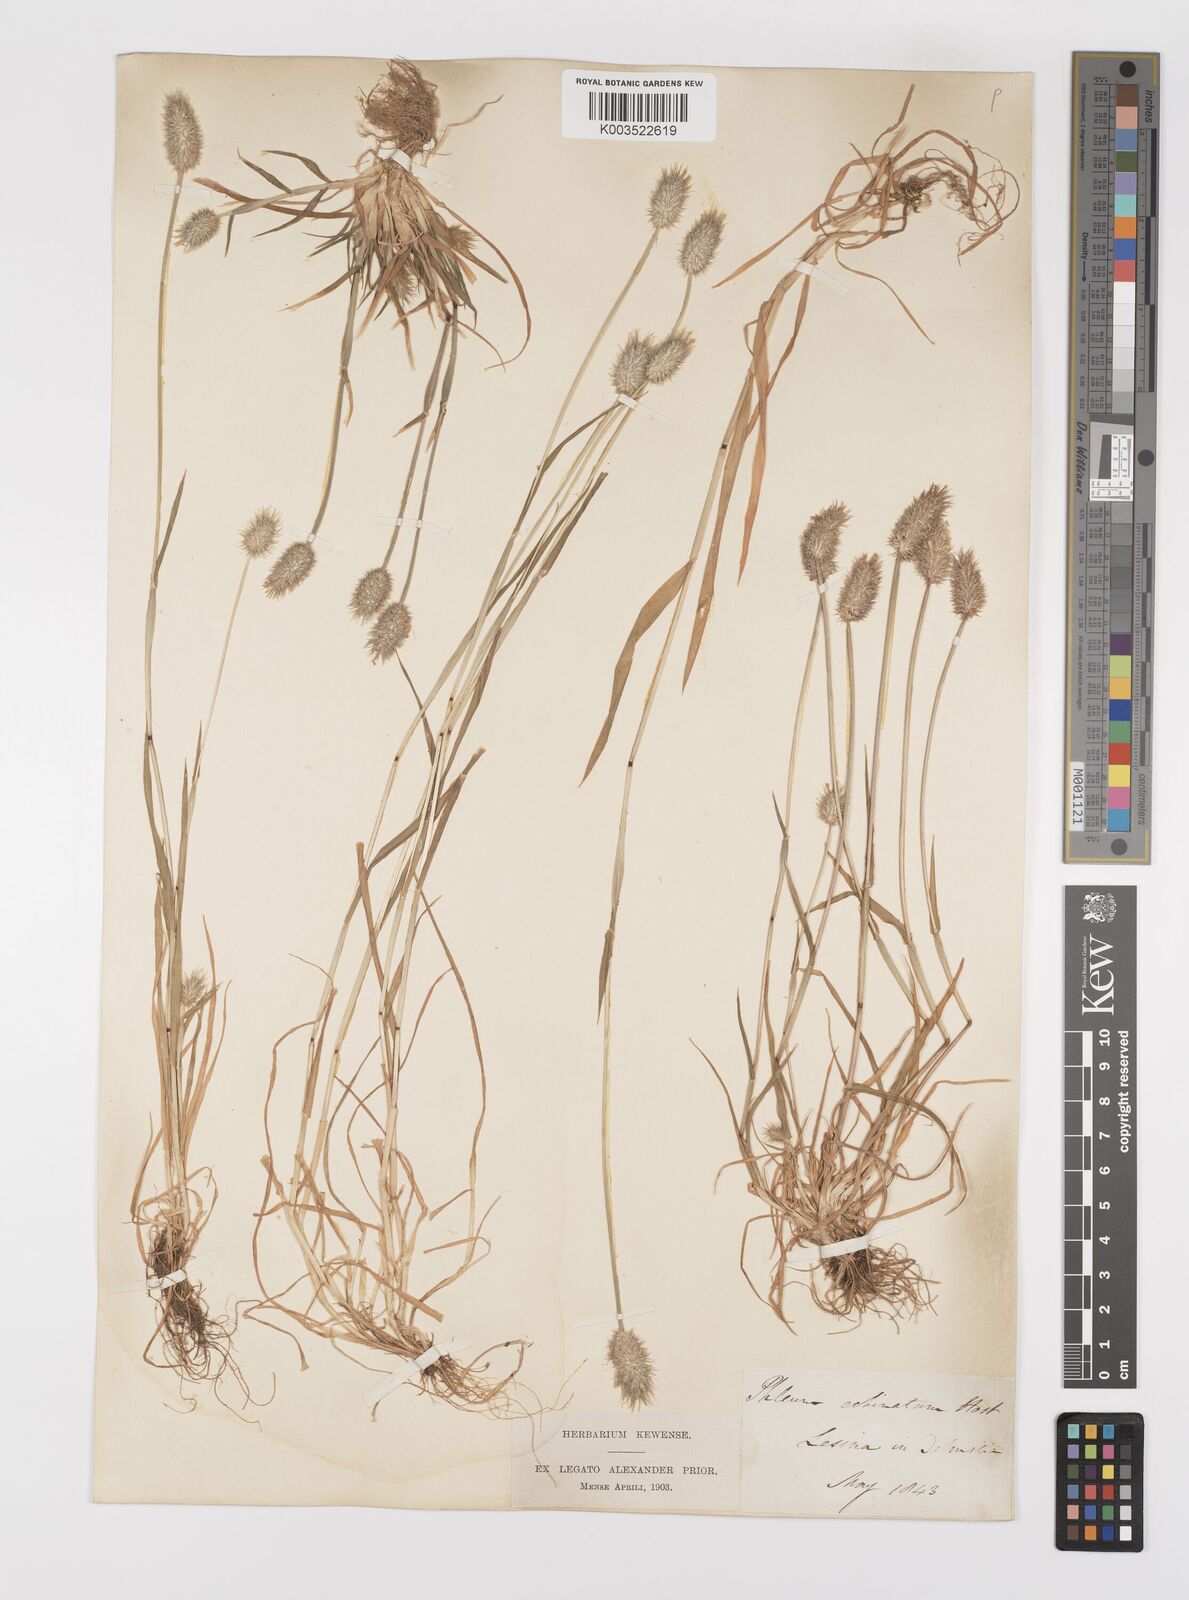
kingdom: Plantae
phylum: Tracheophyta
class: Liliopsida
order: Poales
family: Poaceae
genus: Phleum
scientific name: Phleum echinatum
